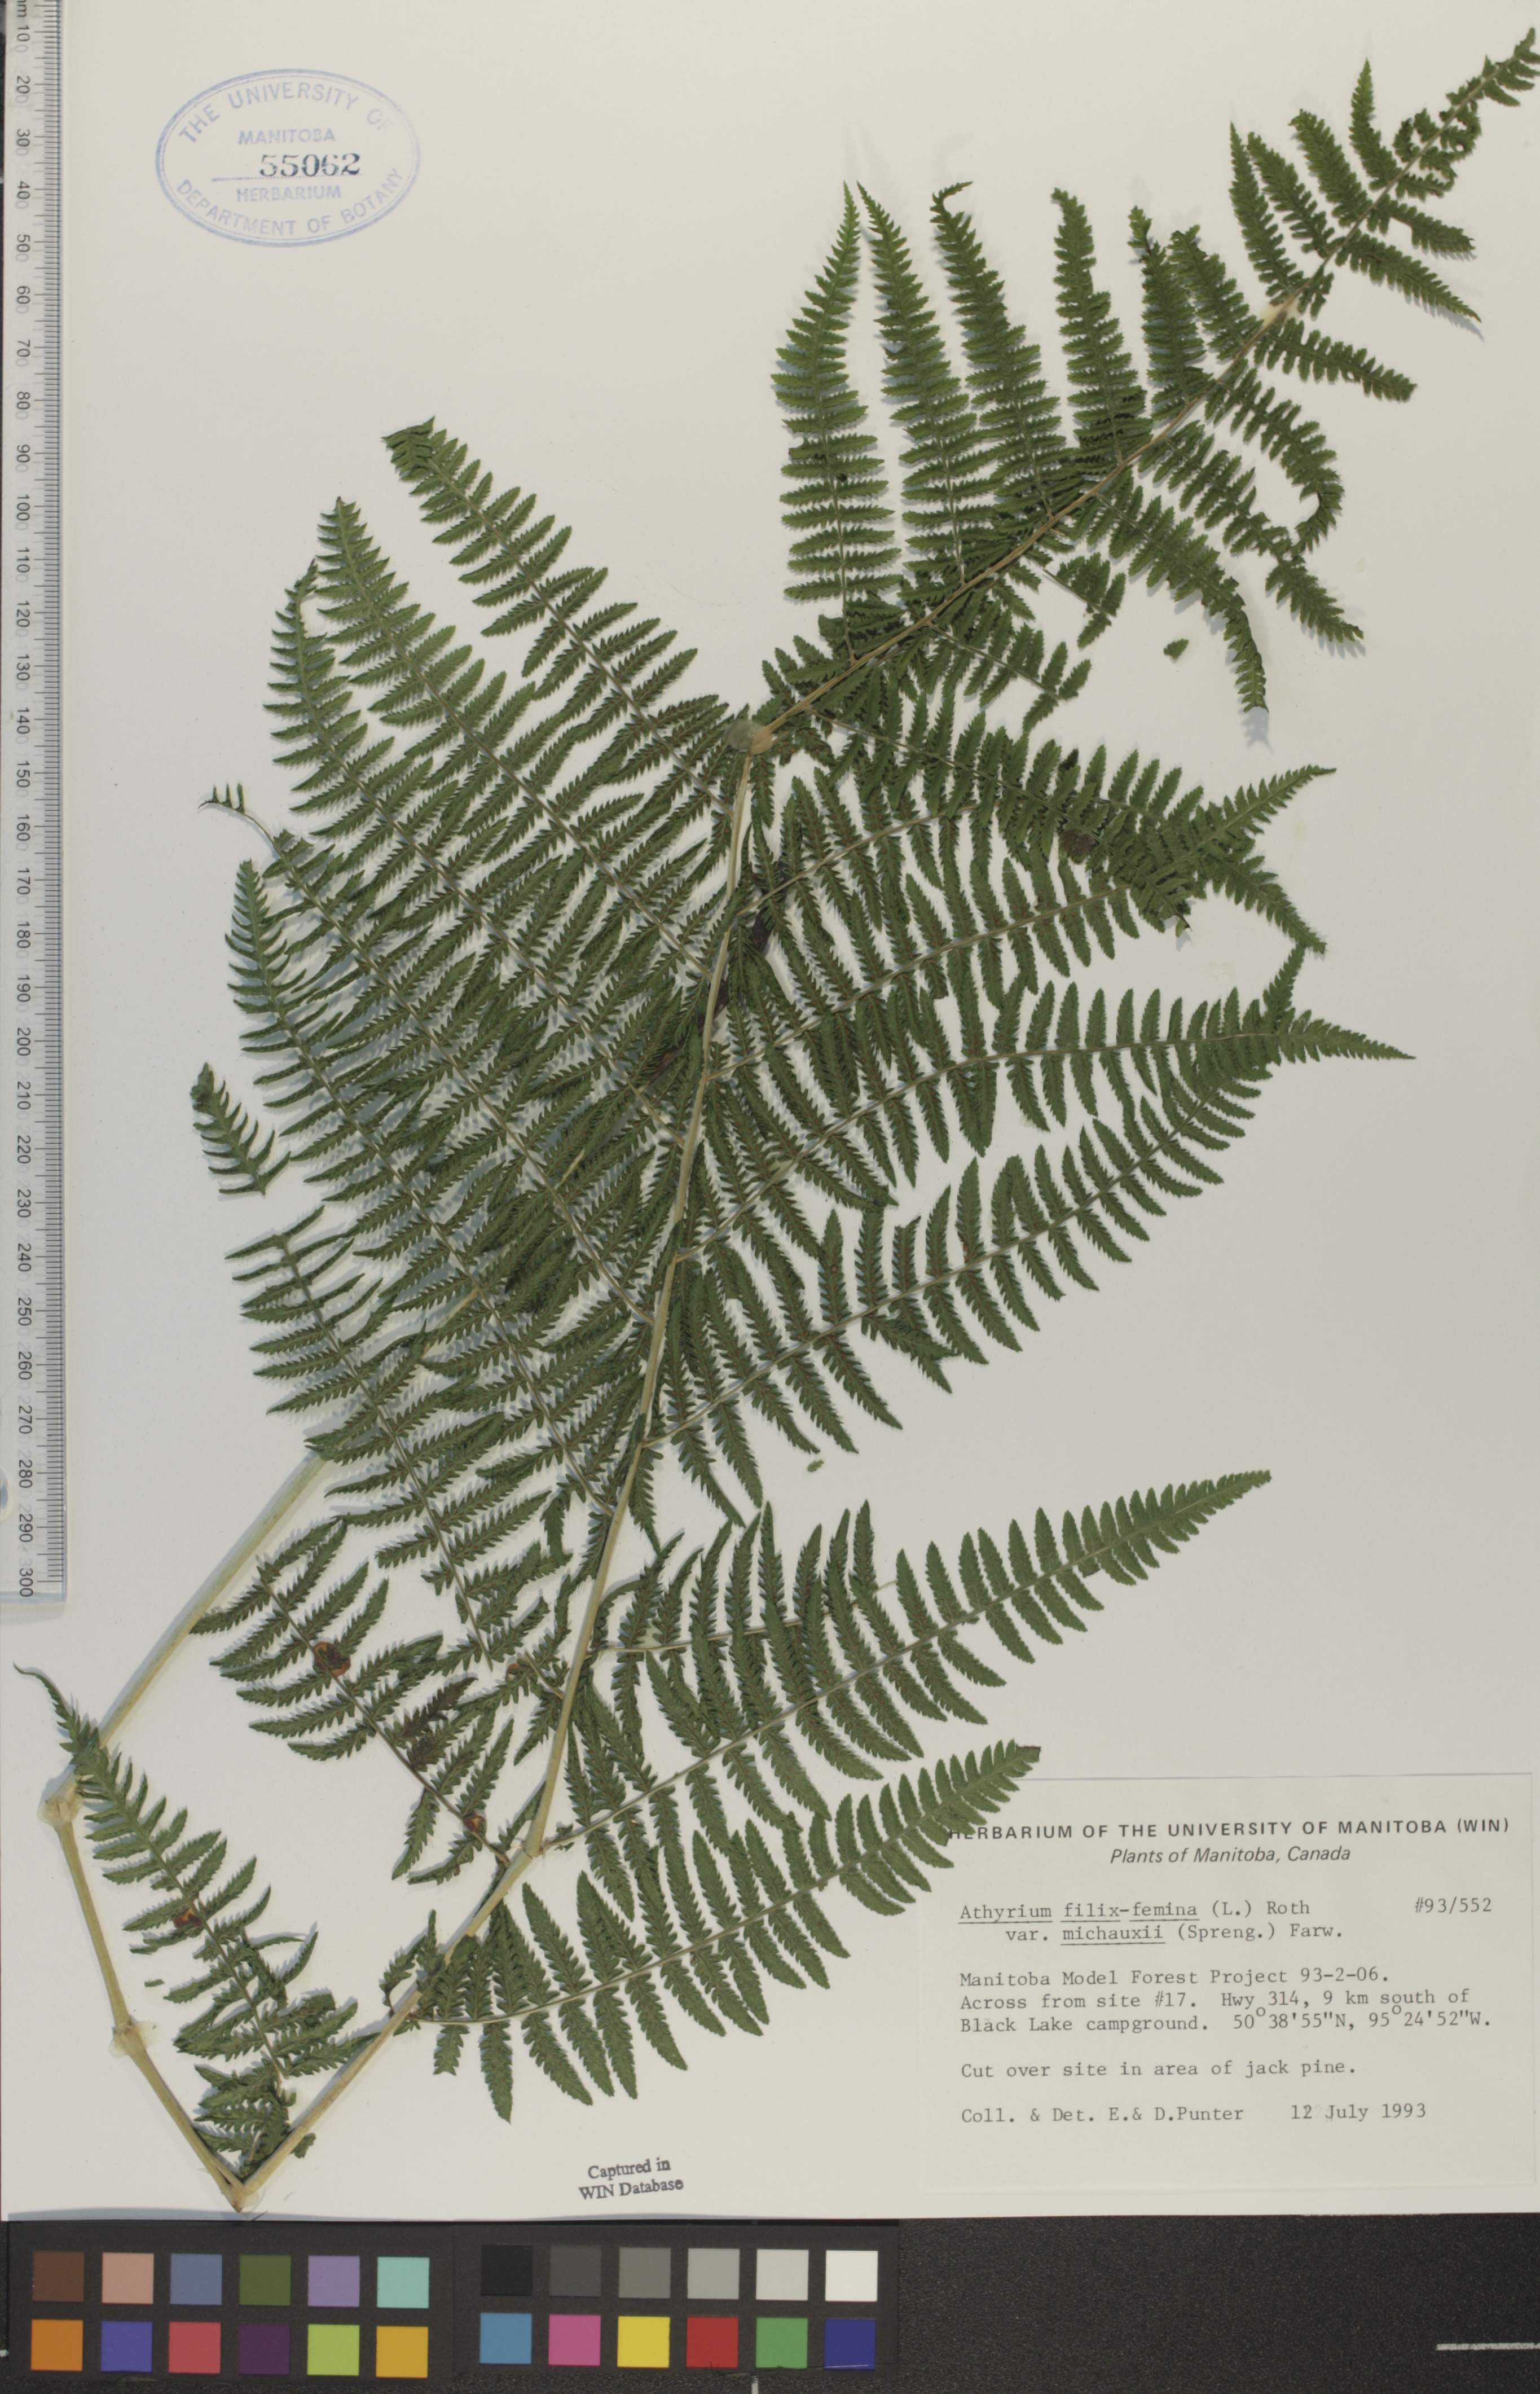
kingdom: Plantae
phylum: Tracheophyta
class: Polypodiopsida
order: Polypodiales
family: Athyriaceae
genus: Athyrium
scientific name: Athyrium angustum
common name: Northern lady fern
